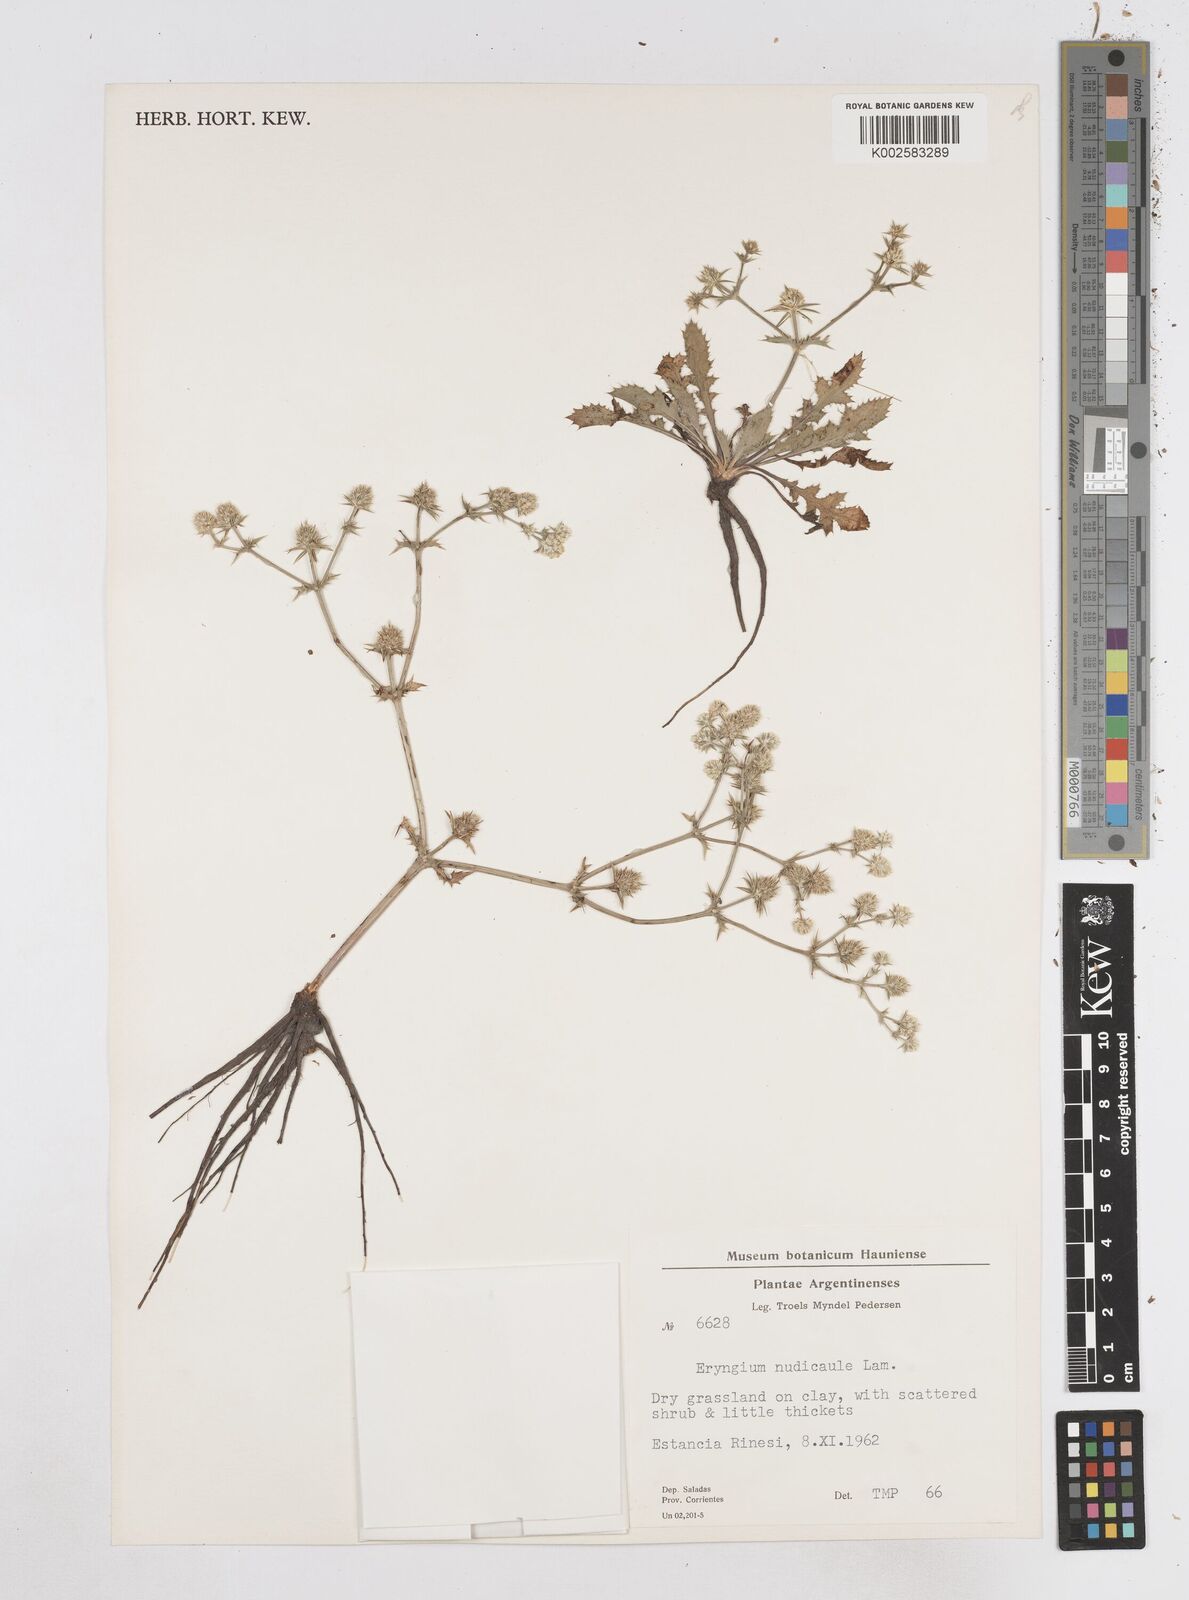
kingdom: Plantae
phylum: Tracheophyta
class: Magnoliopsida
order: Apiales
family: Apiaceae
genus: Eryngium
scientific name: Eryngium nudicaule
